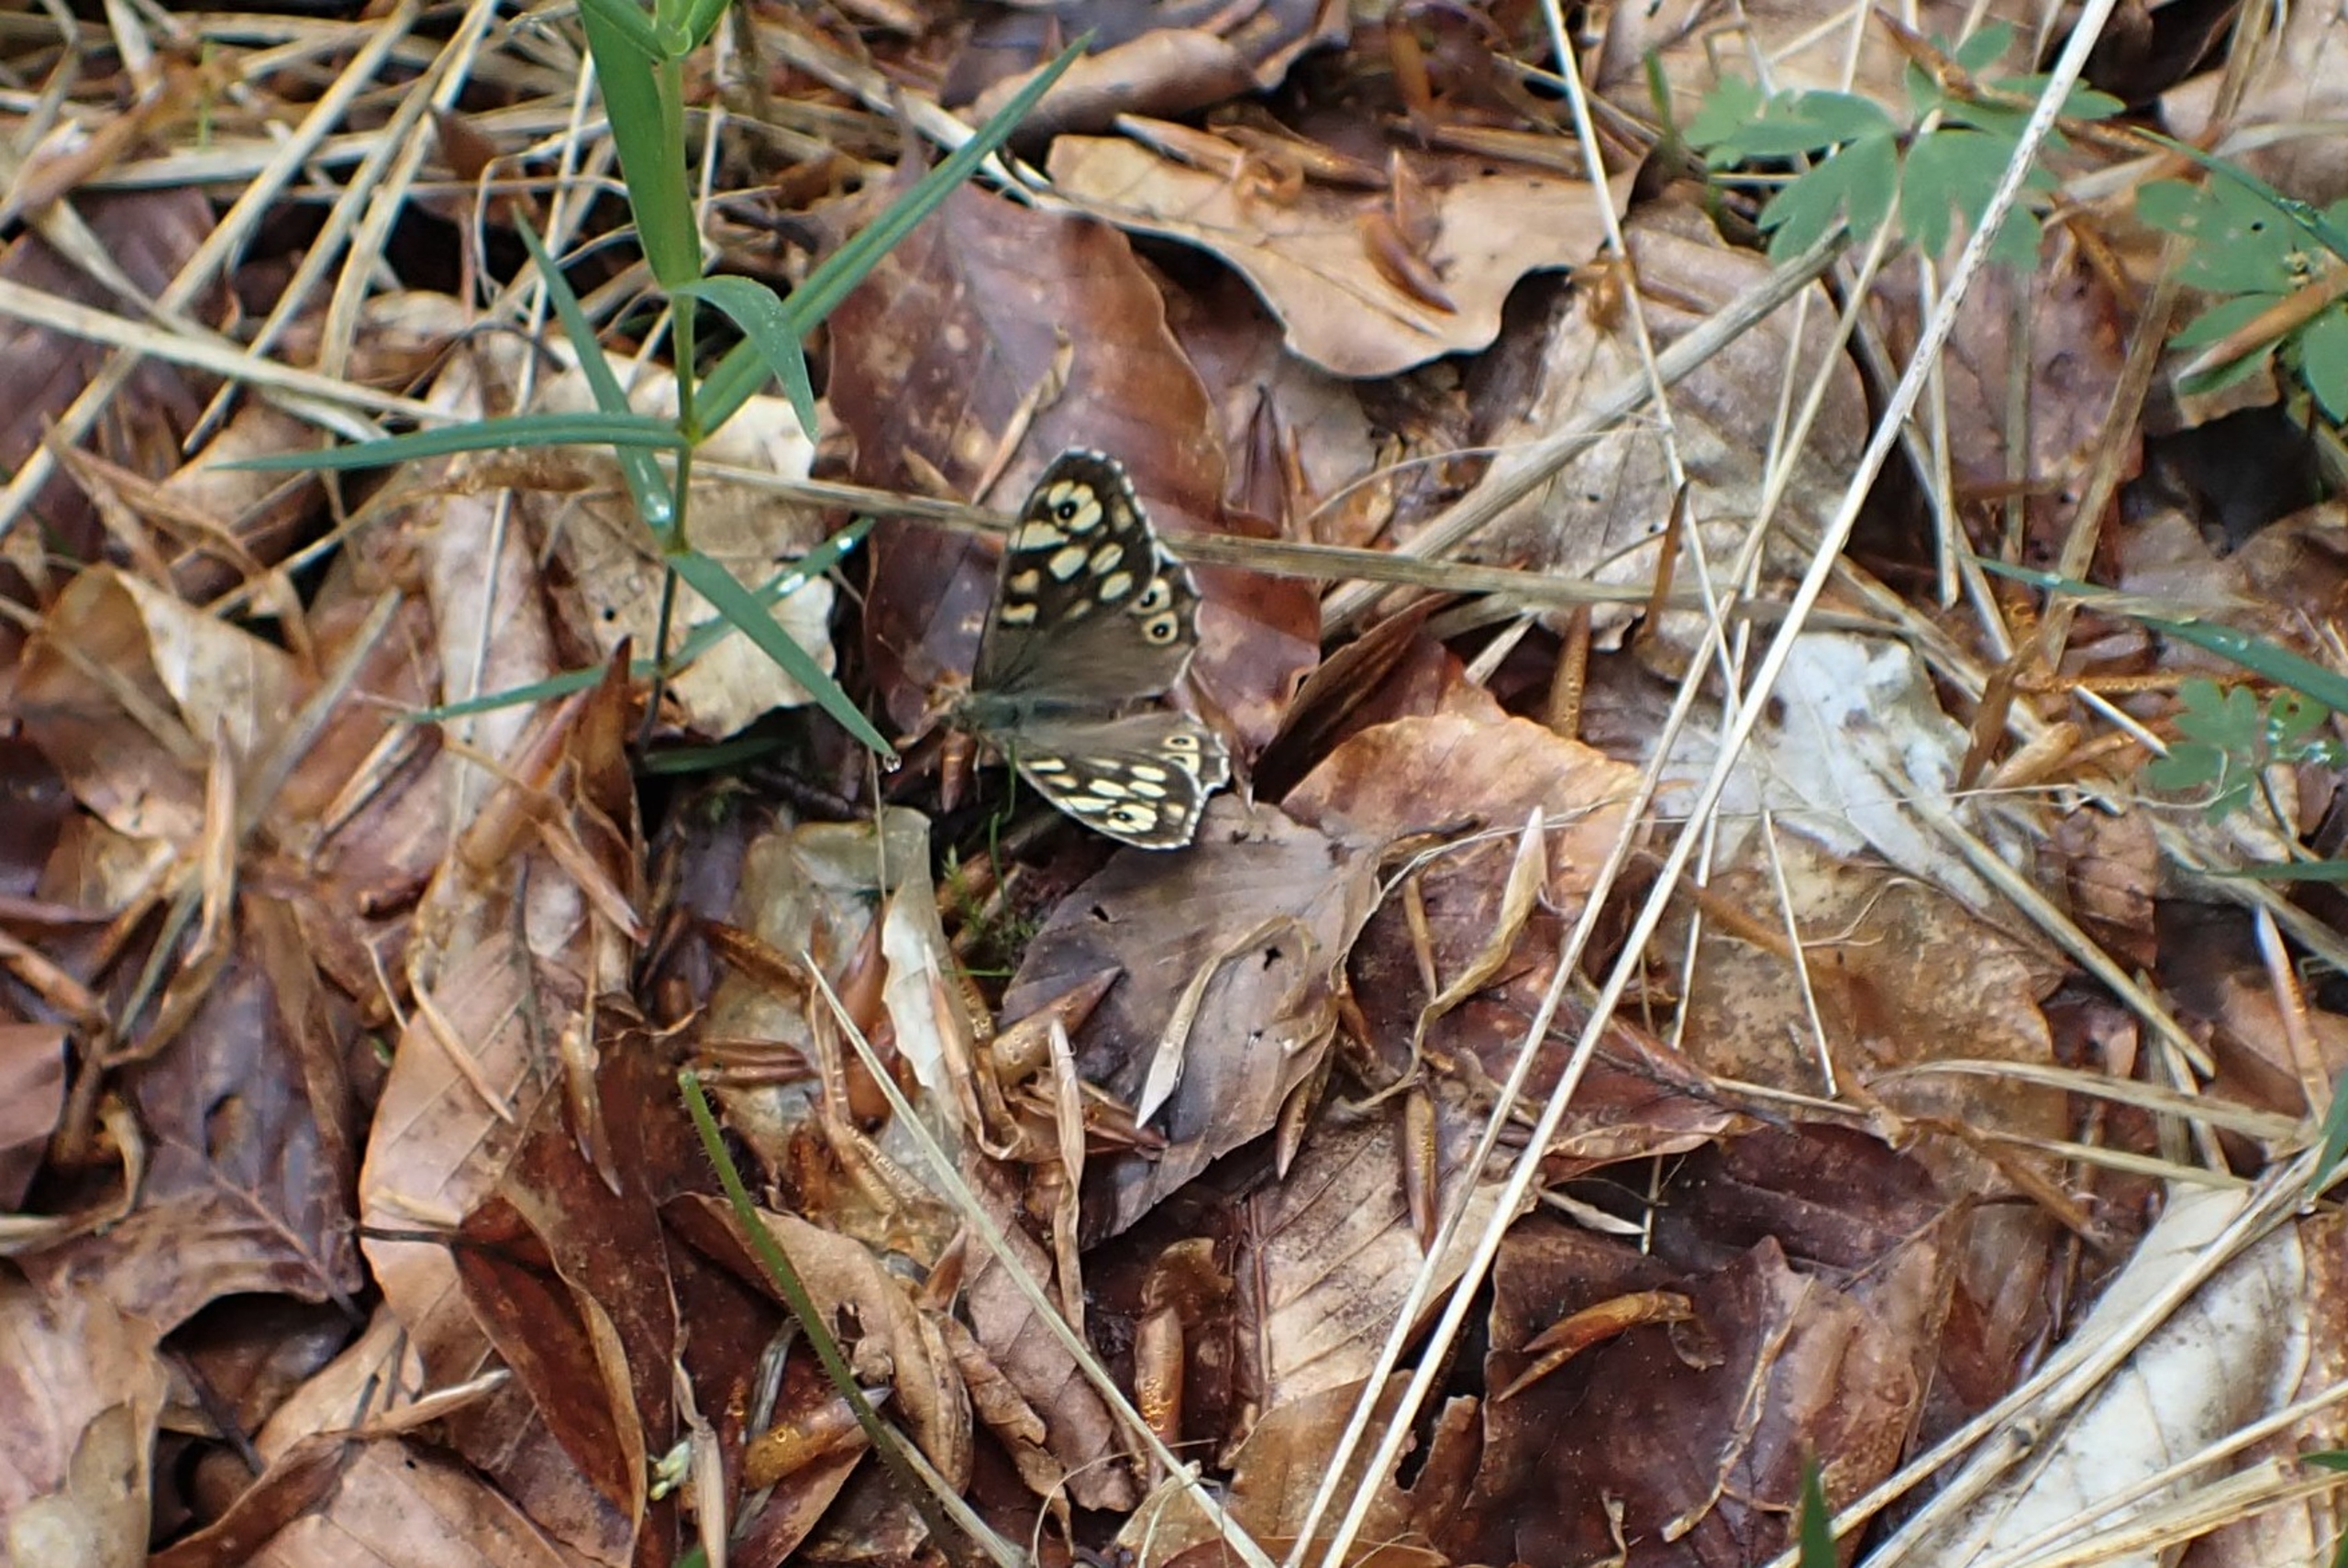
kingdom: Animalia
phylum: Arthropoda
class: Insecta
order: Lepidoptera
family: Nymphalidae
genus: Pararge
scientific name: Pararge aegeria
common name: Skovrandøje
